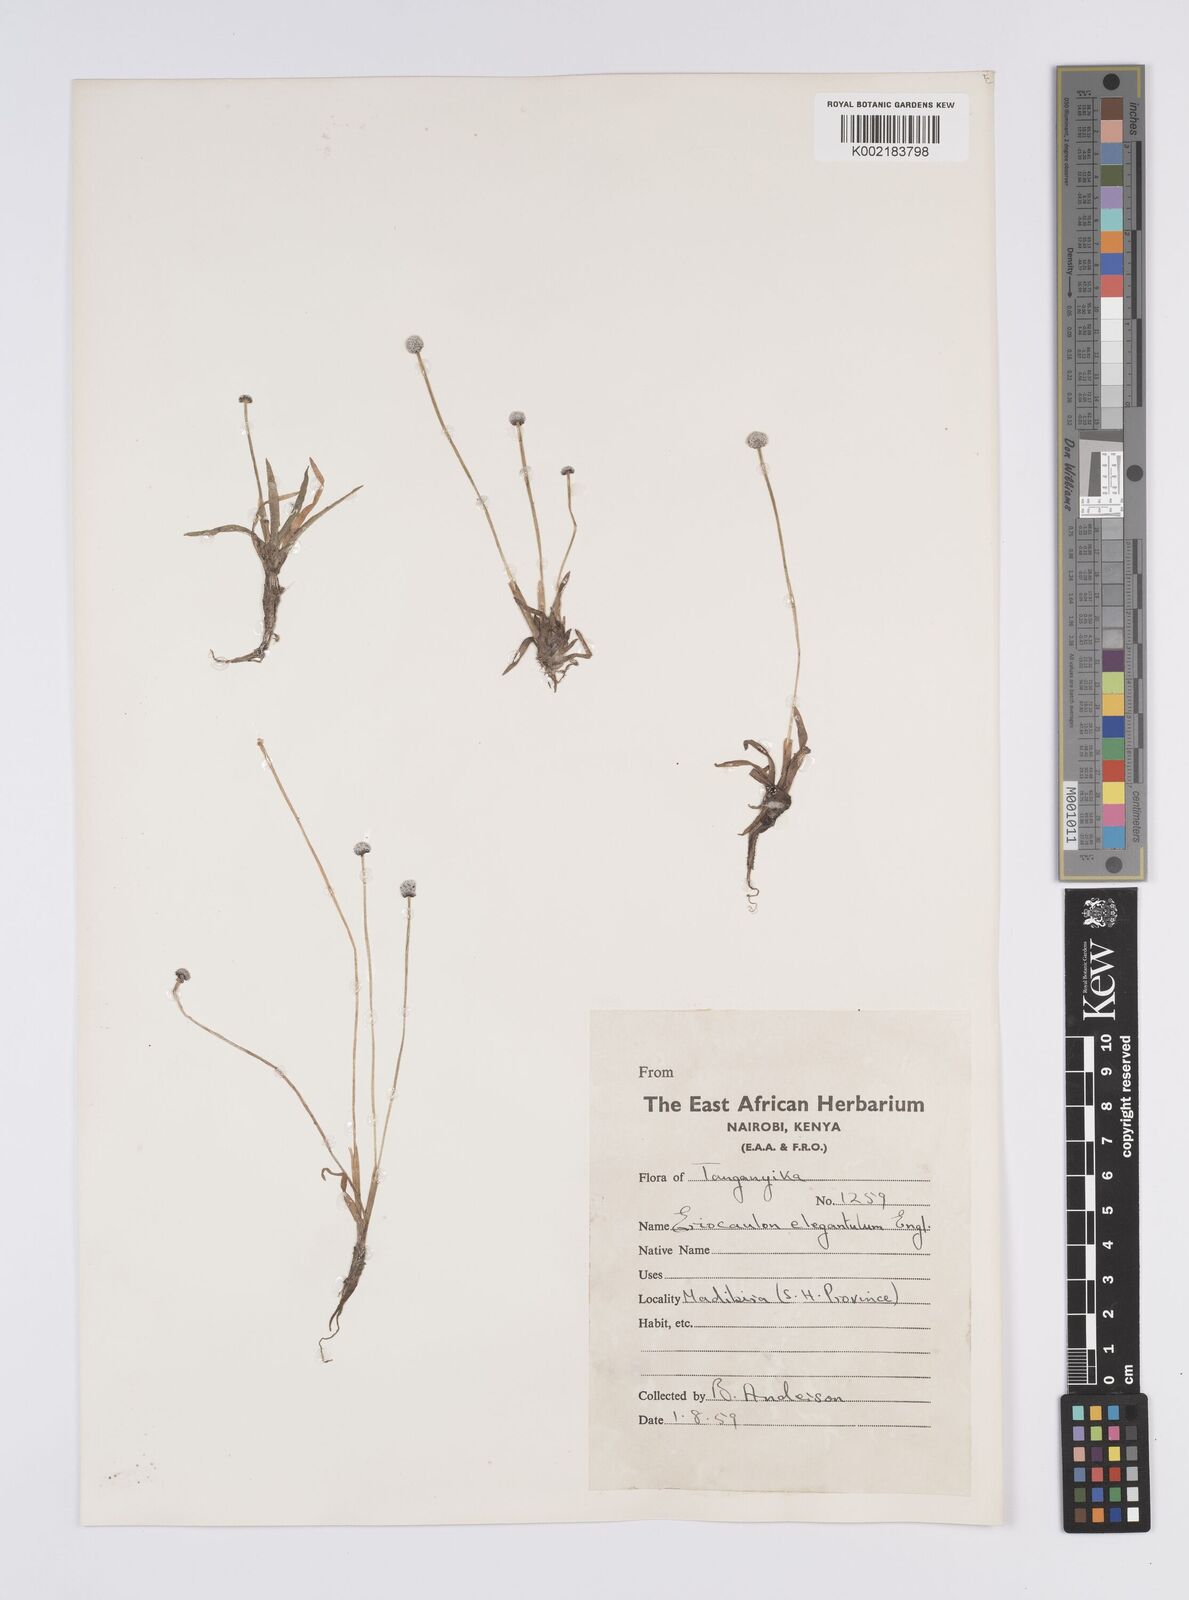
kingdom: Plantae
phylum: Tracheophyta
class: Liliopsida
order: Poales
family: Eriocaulaceae
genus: Eriocaulon
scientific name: Eriocaulon elegantulum
